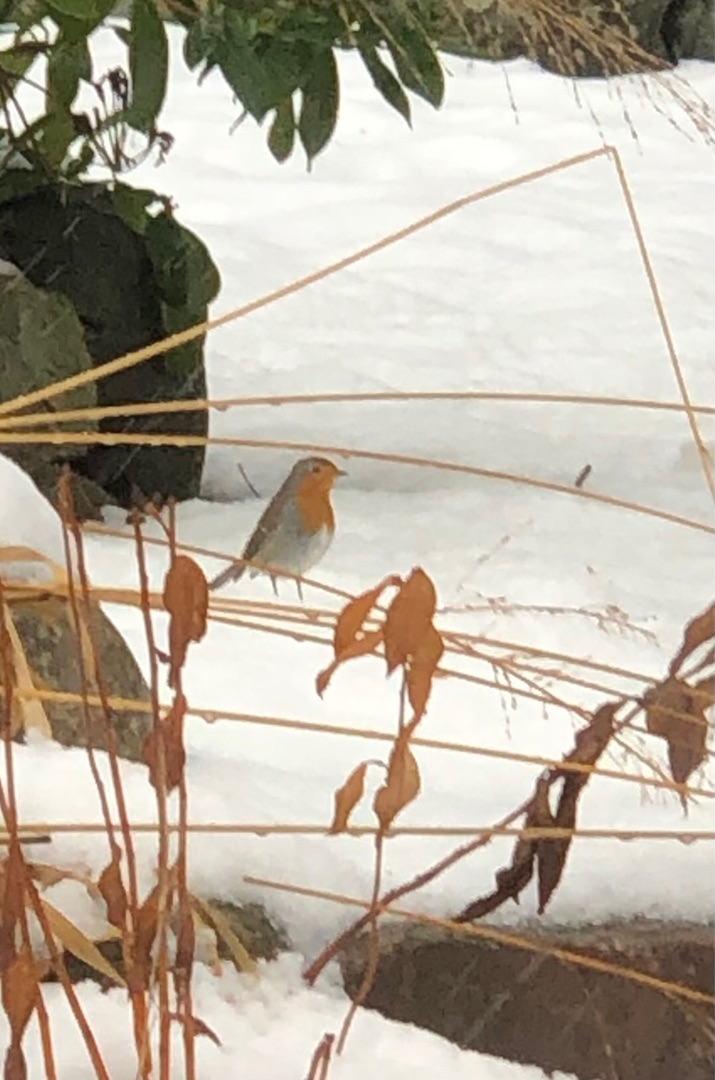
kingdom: Animalia
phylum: Chordata
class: Aves
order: Passeriformes
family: Muscicapidae
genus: Erithacus
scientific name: Erithacus rubecula
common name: Rødhals/rødkælk
